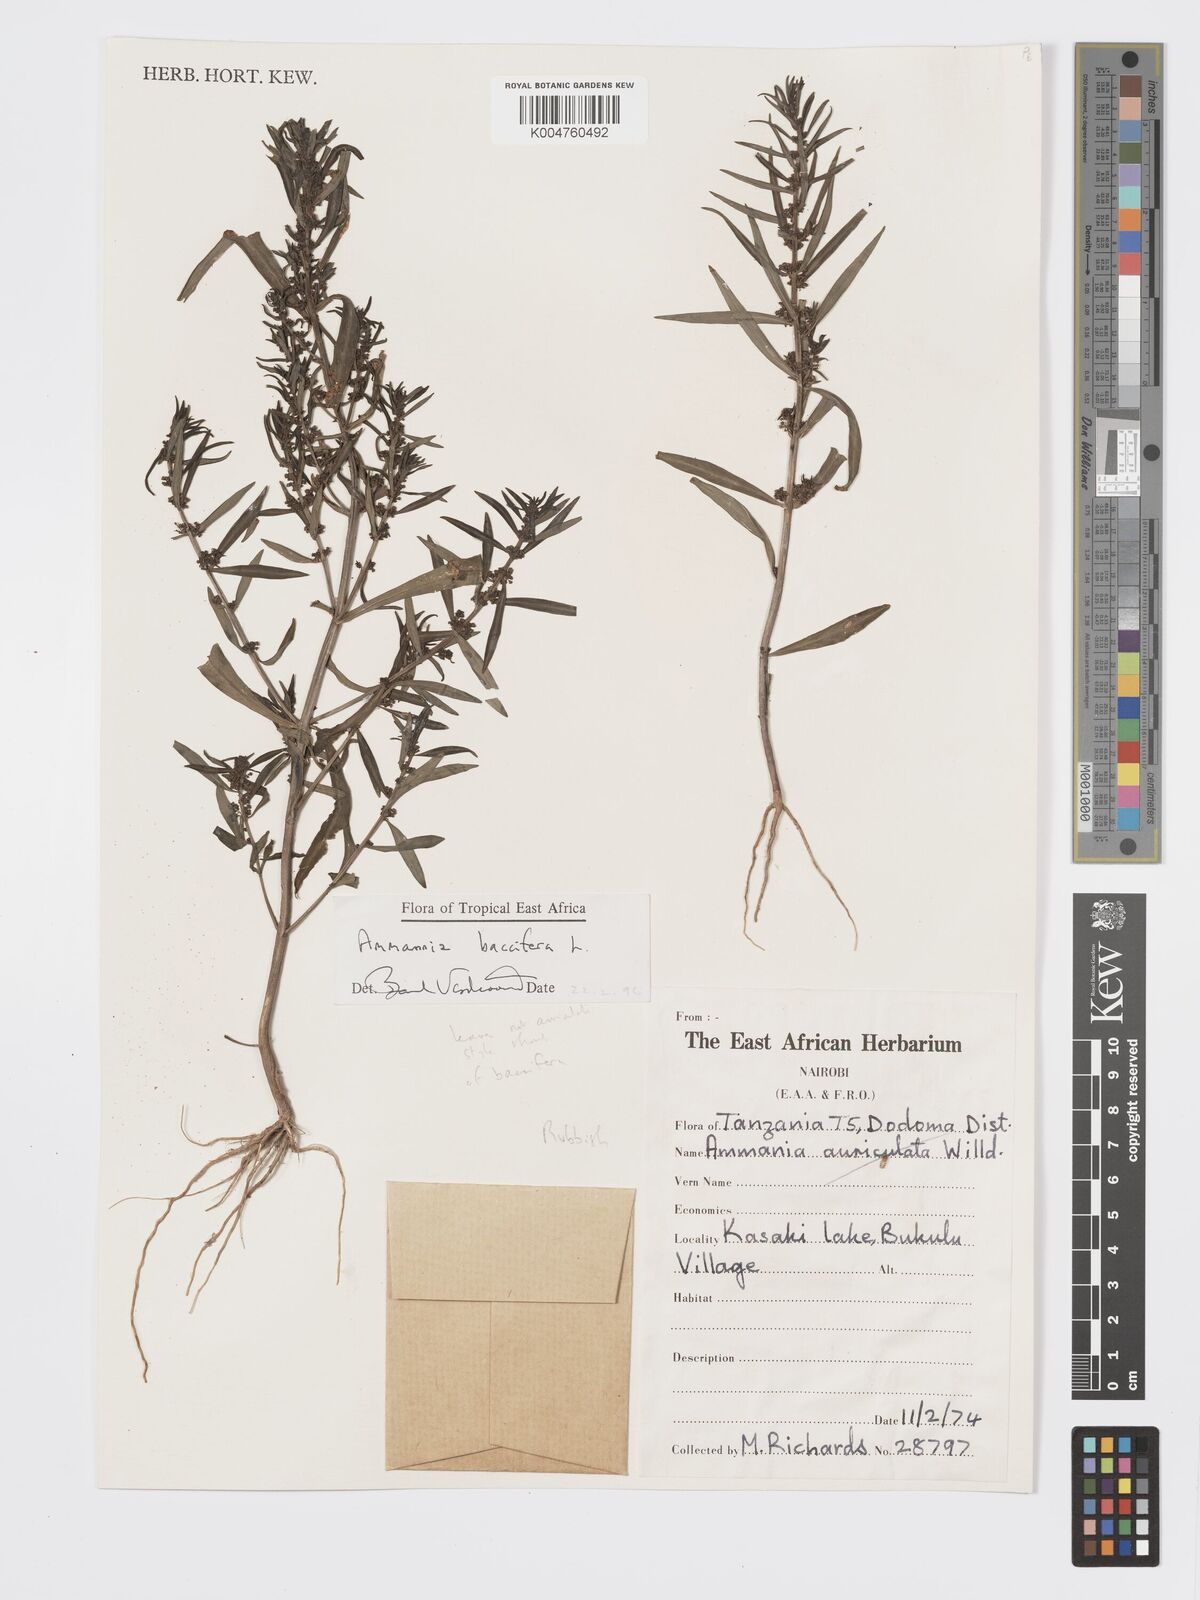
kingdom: Plantae
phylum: Tracheophyta
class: Magnoliopsida
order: Myrtales
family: Lythraceae
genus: Ammannia
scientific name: Ammannia
